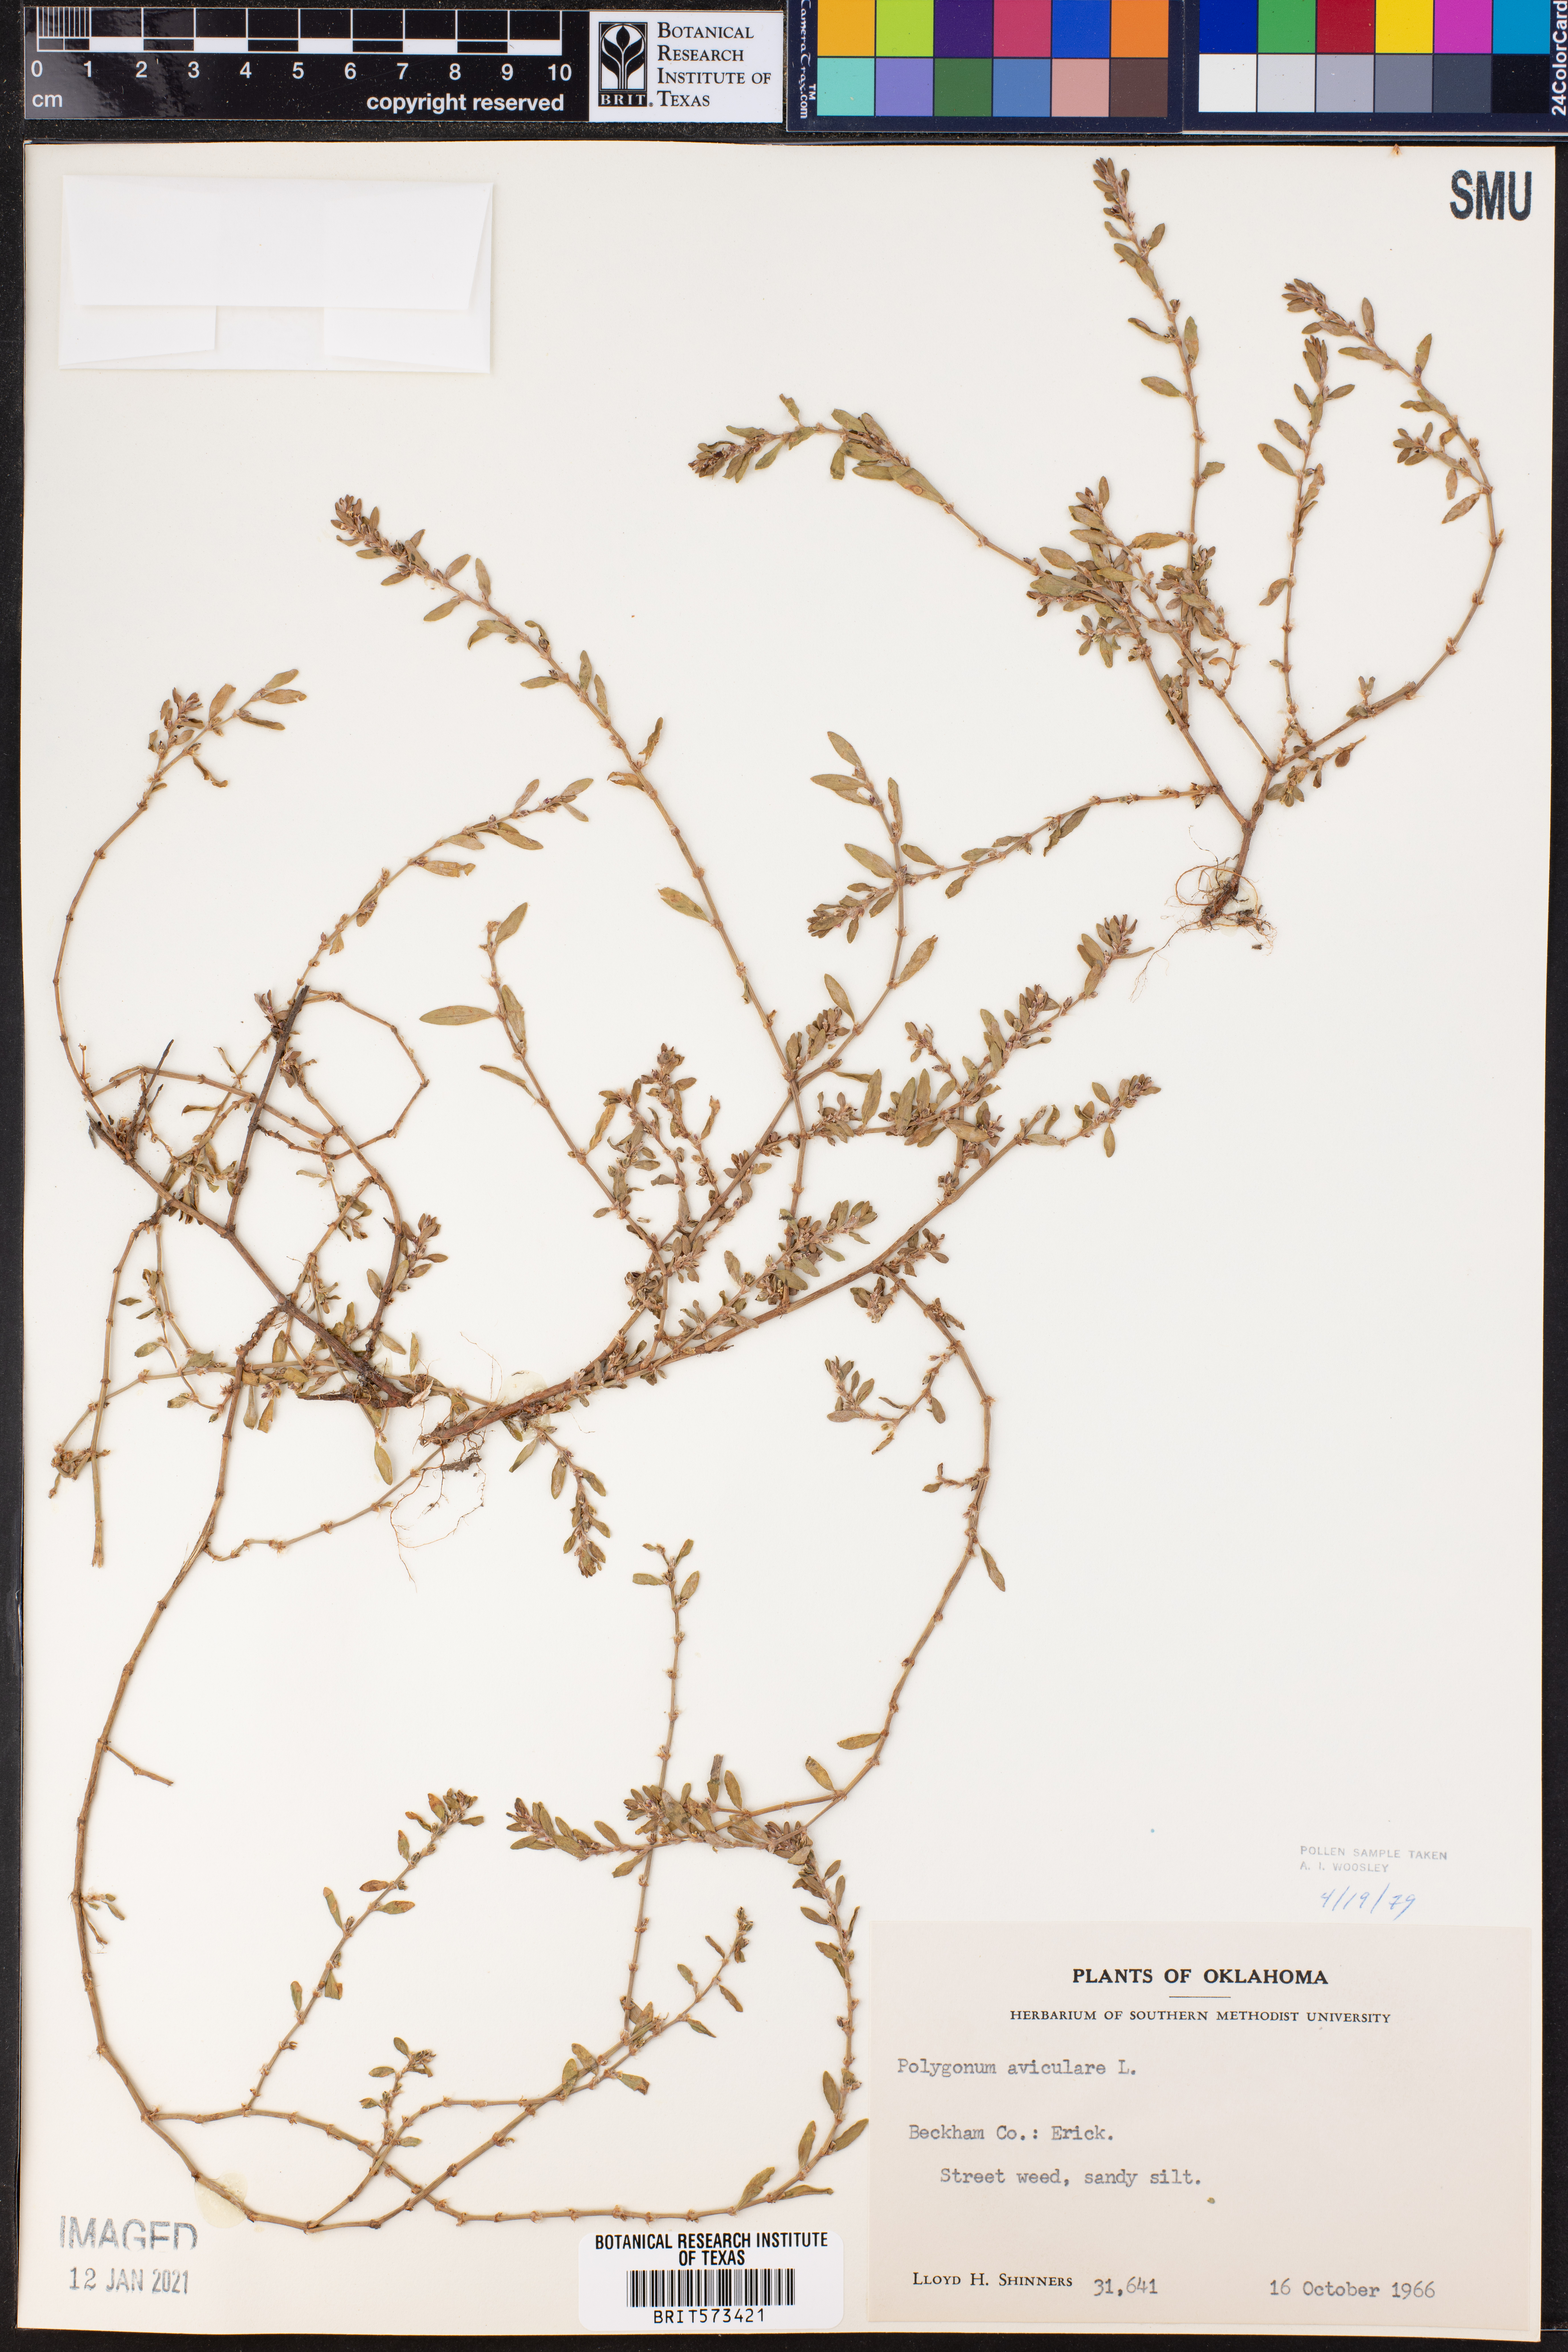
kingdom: Plantae
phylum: Tracheophyta
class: Magnoliopsida
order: Caryophyllales
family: Polygonaceae
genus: Polygonum
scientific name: Polygonum aviculare
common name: Prostrate knotweed
